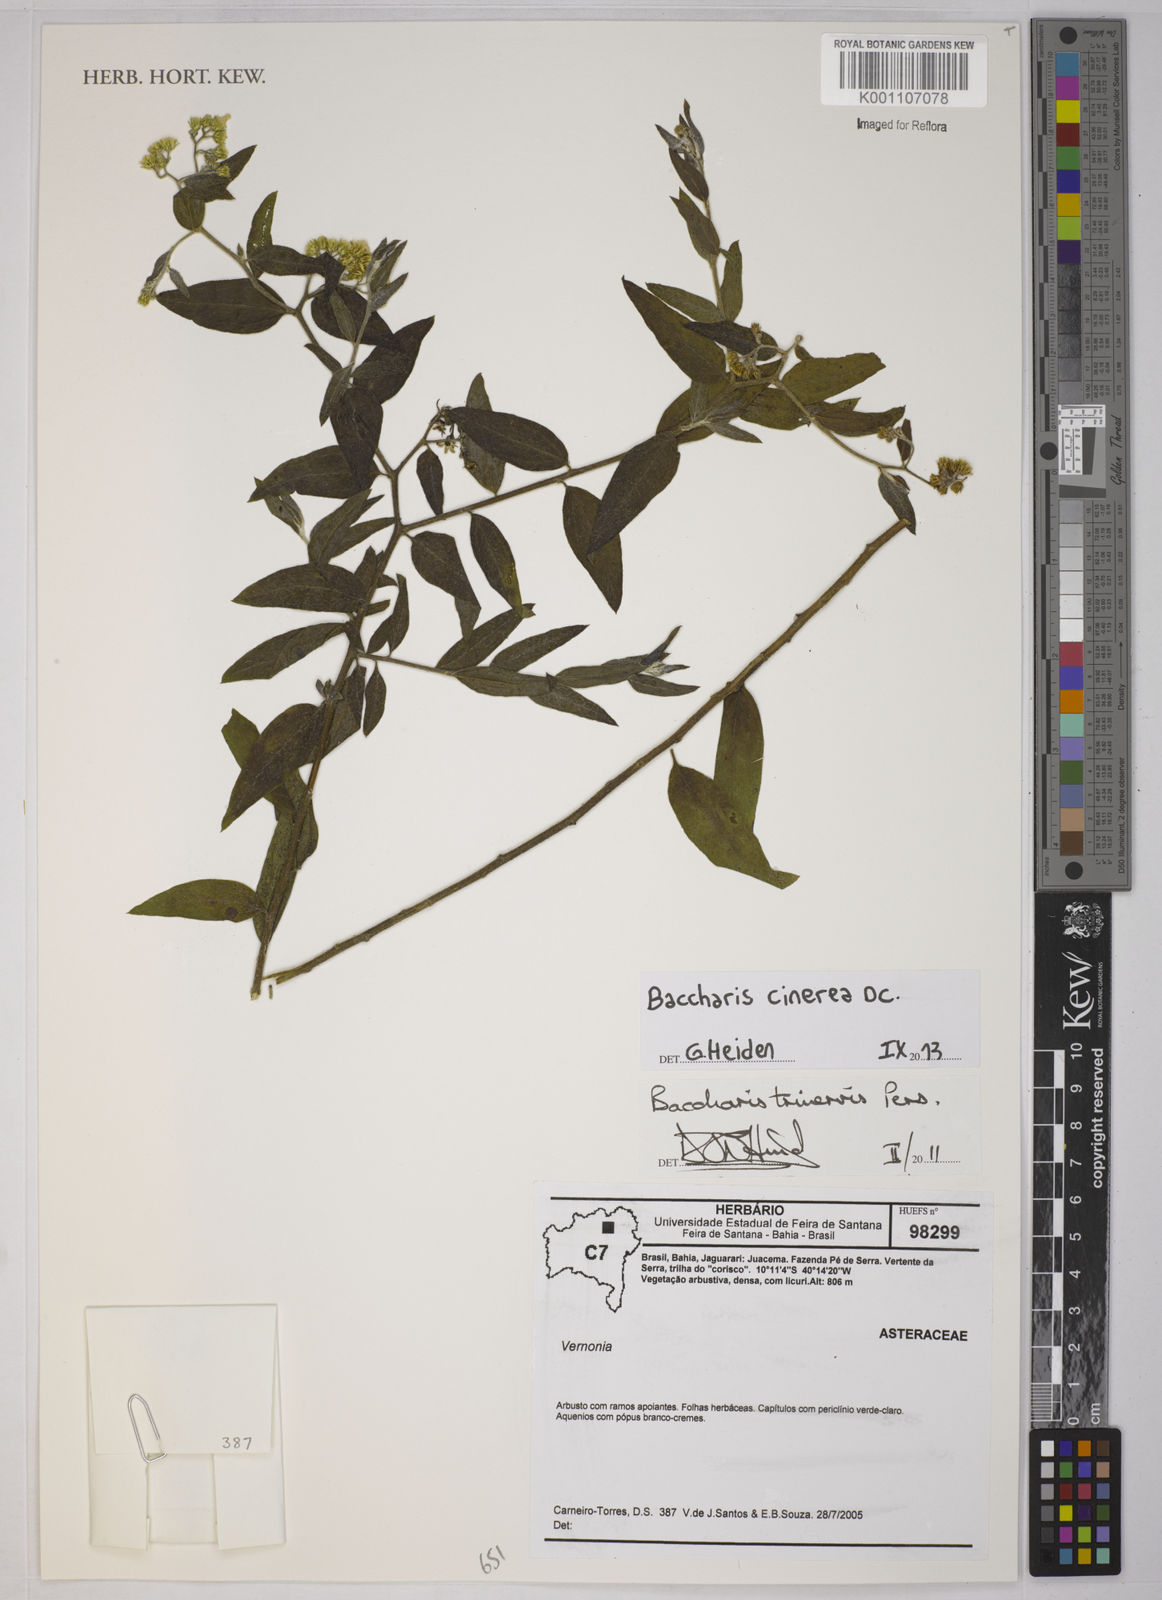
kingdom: Plantae
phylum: Tracheophyta
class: Magnoliopsida
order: Asterales
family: Asteraceae
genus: Baccharis
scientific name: Baccharis trinervis
